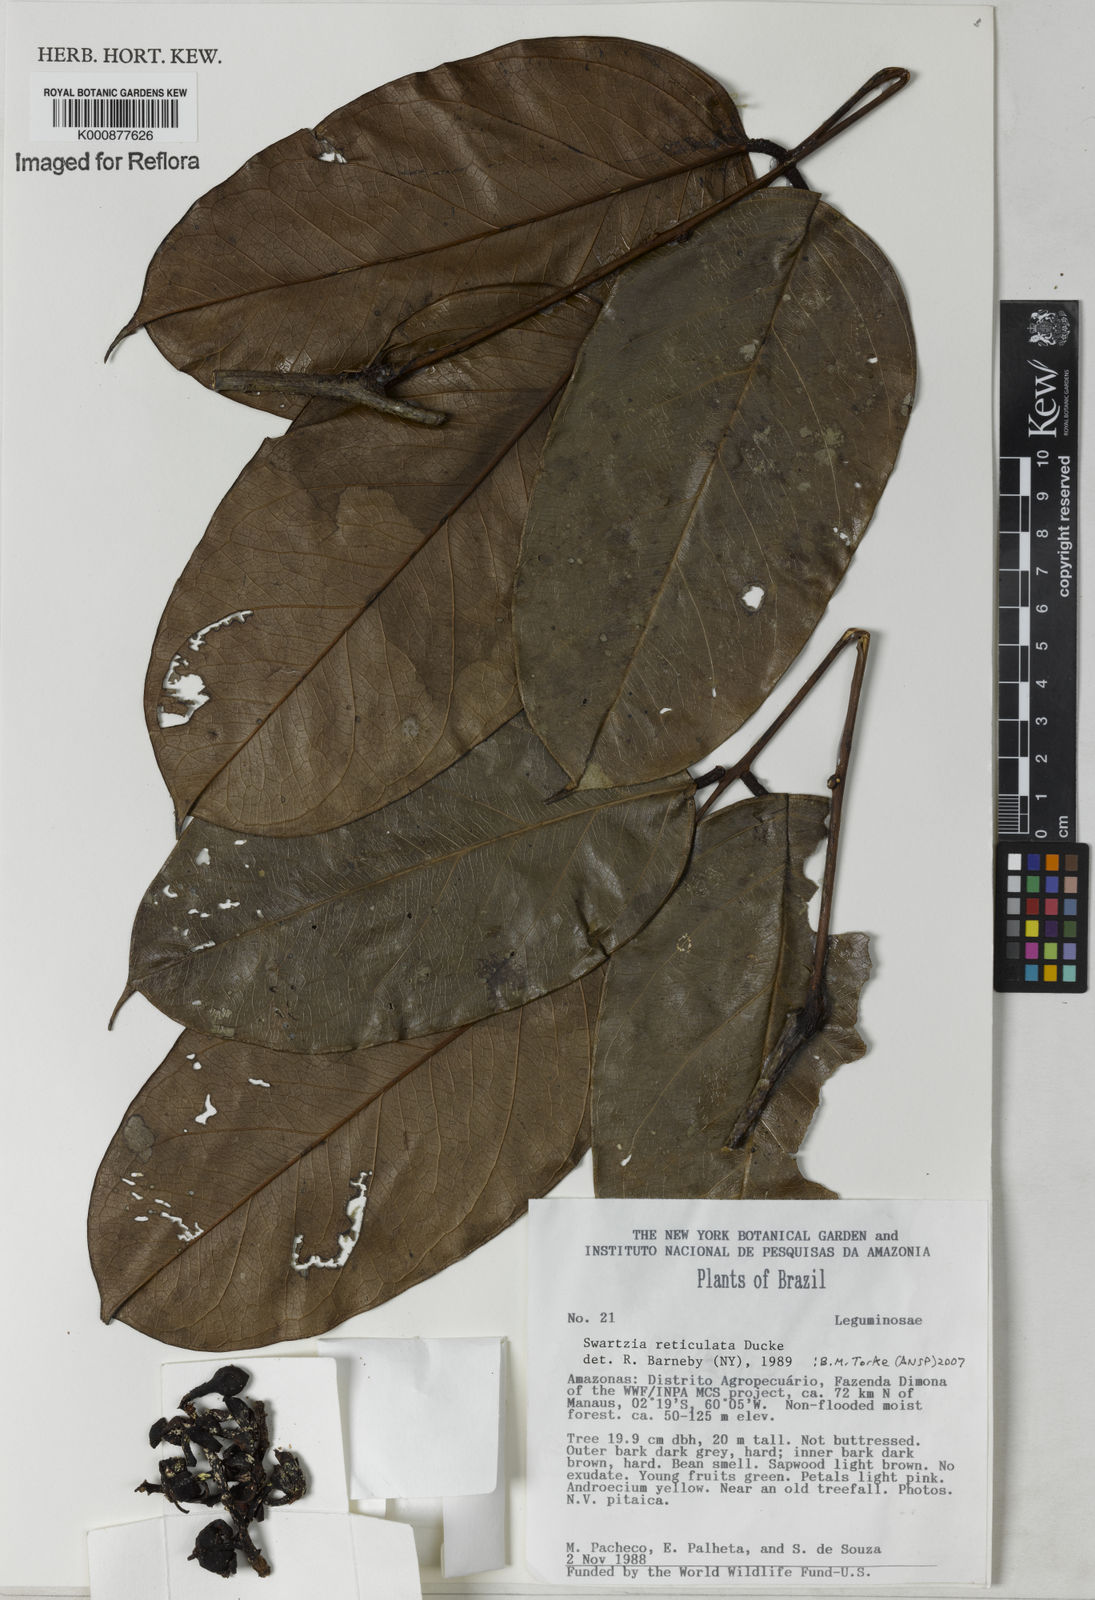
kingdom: Plantae
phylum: Tracheophyta
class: Magnoliopsida
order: Fabales
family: Fabaceae
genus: Swartzia
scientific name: Swartzia reticulata
